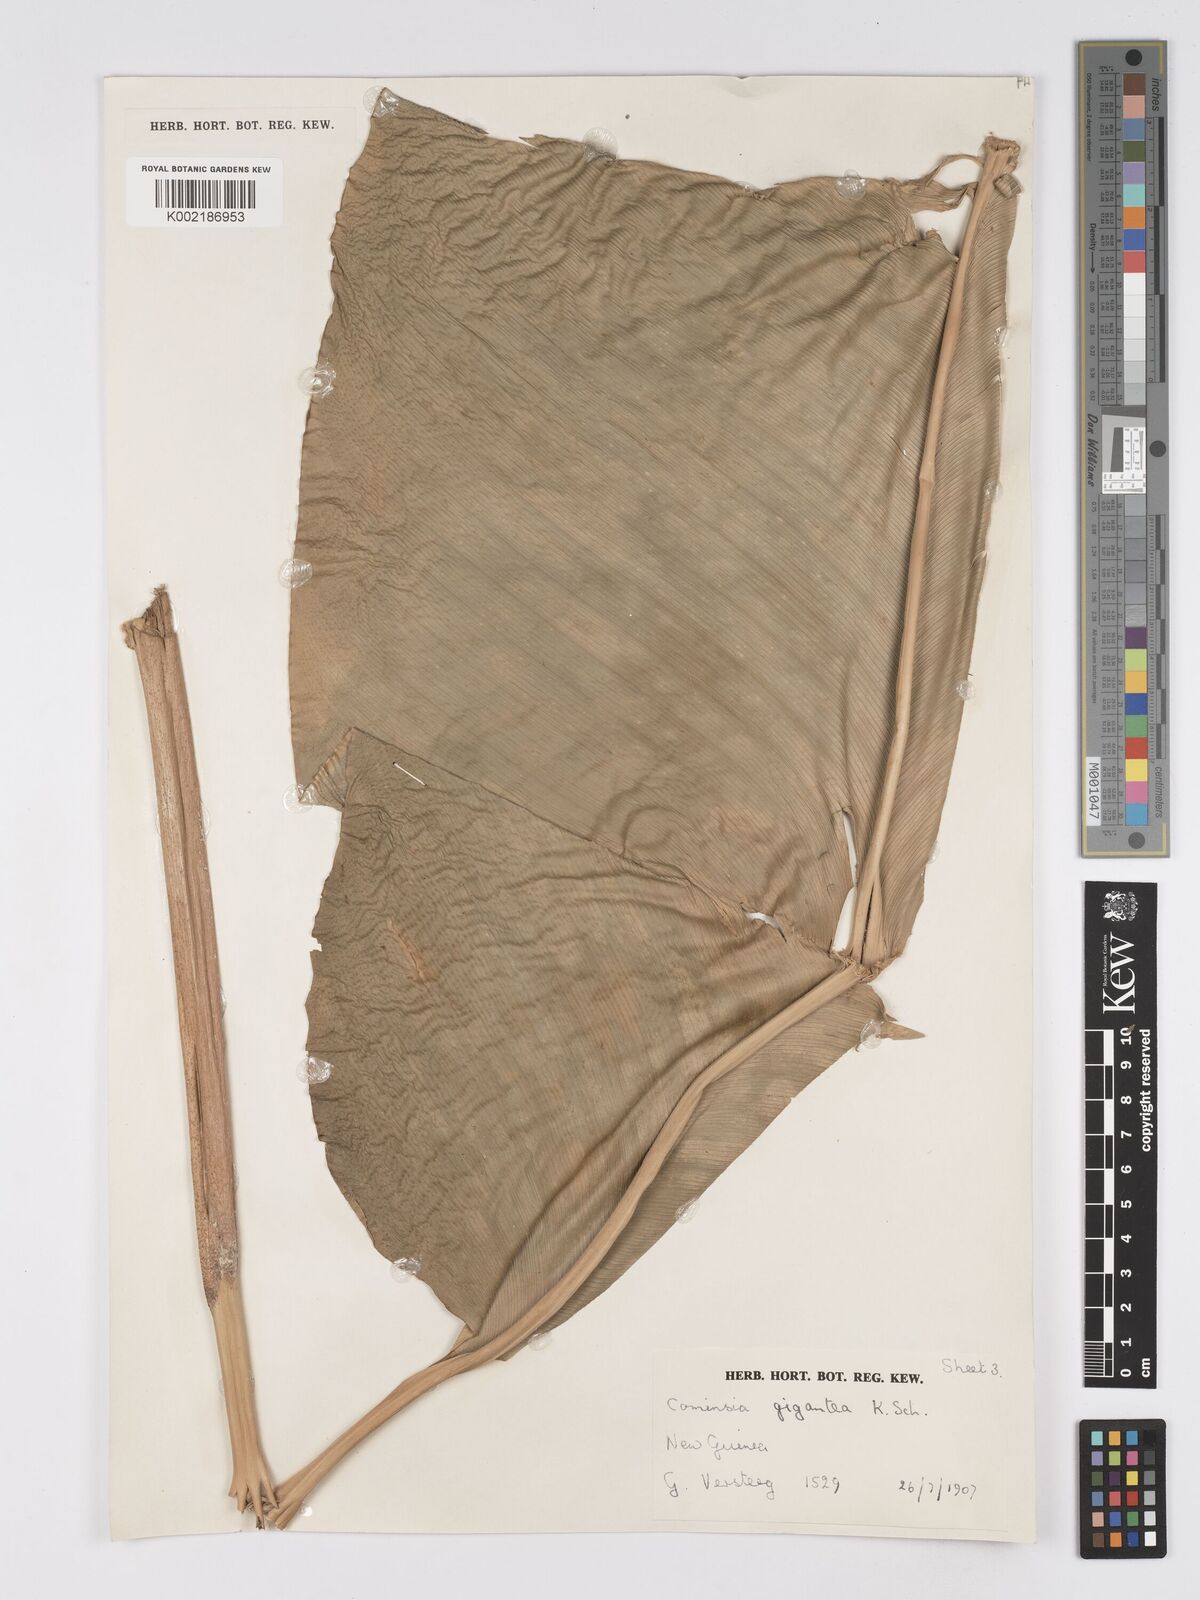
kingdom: Plantae
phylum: Tracheophyta
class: Liliopsida
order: Zingiberales
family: Marantaceae
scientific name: Marantaceae
